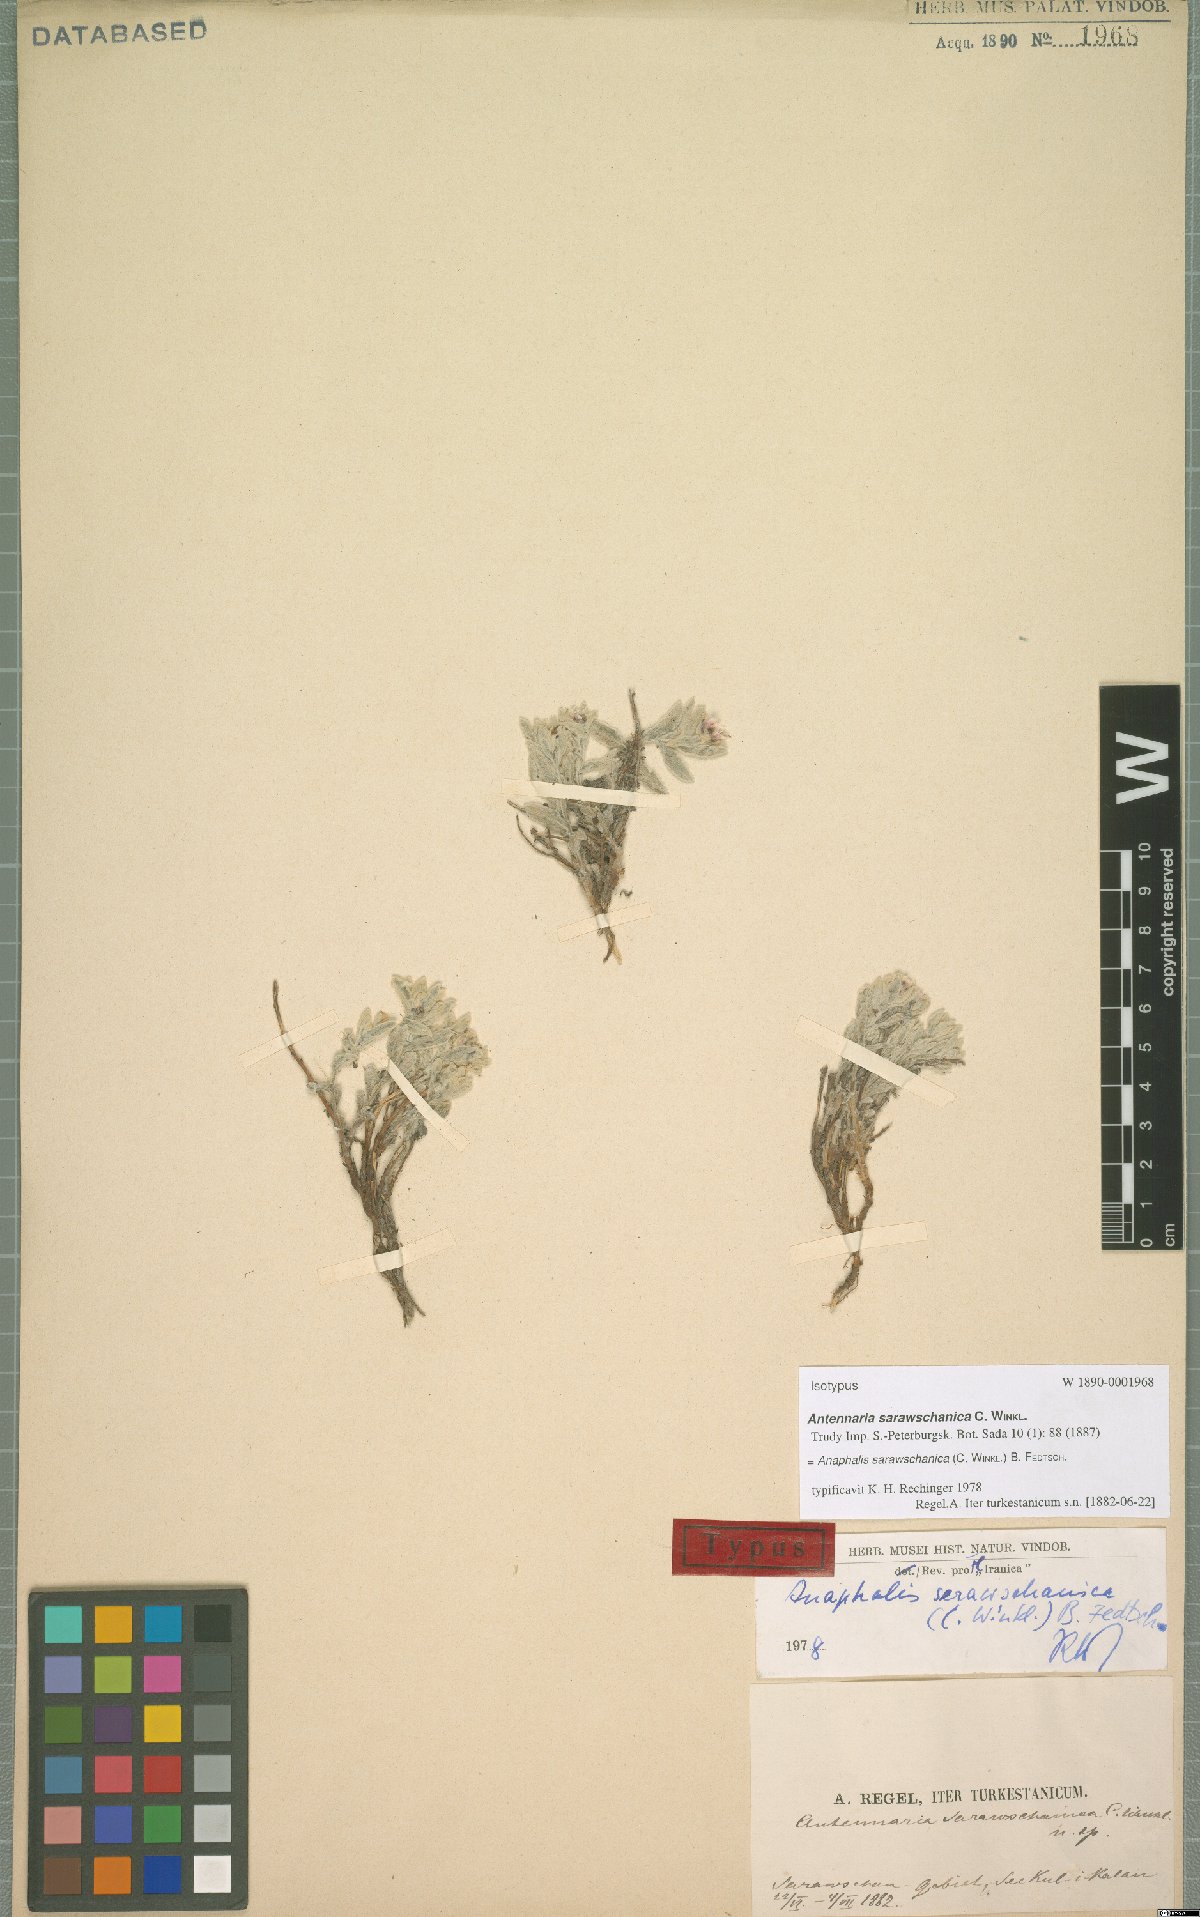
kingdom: Plantae
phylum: Tracheophyta
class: Magnoliopsida
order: Asterales
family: Asteraceae
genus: Anaphalis
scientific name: Anaphalis sarawschanica
